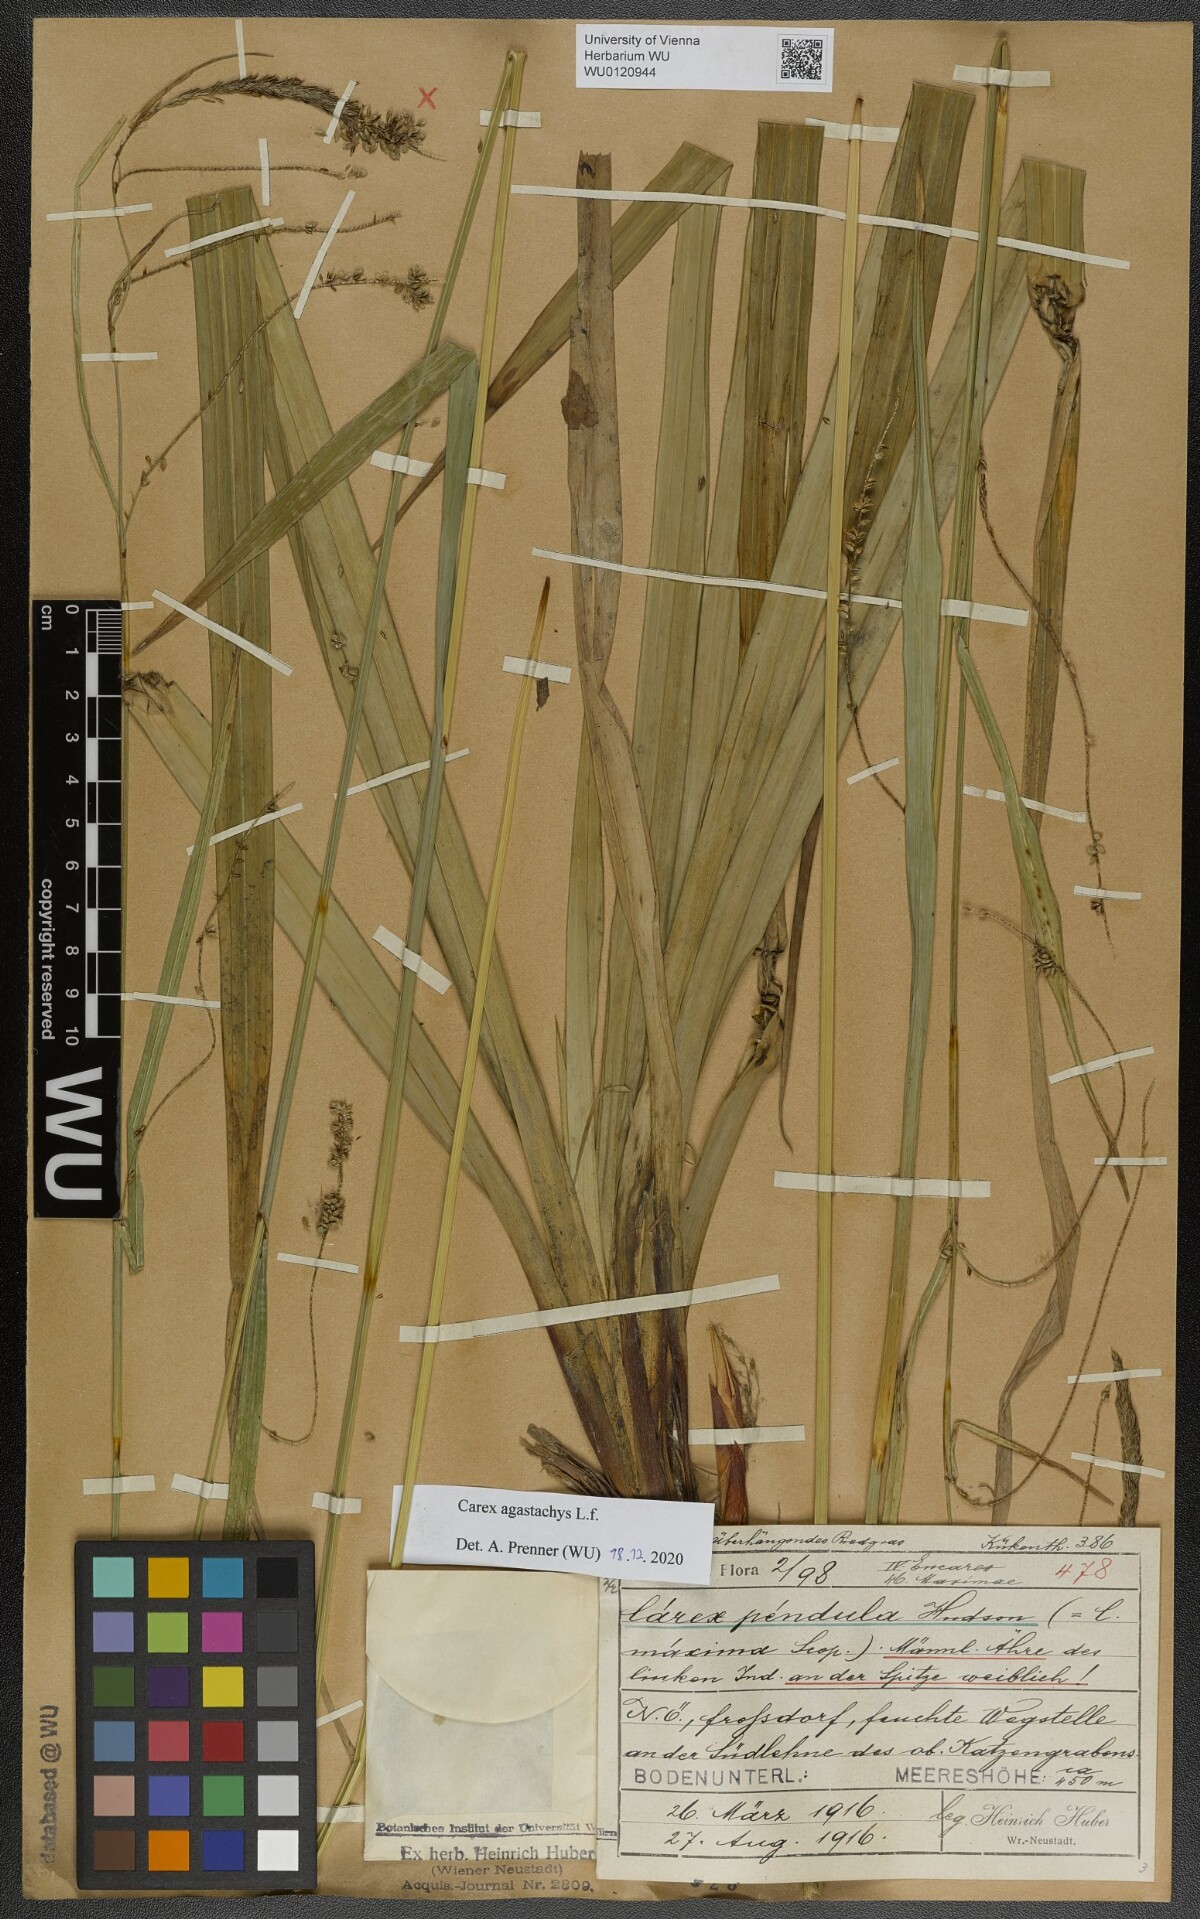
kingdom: Plantae
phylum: Tracheophyta
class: Liliopsida
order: Poales
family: Cyperaceae
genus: Carex
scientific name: Carex agastachys
